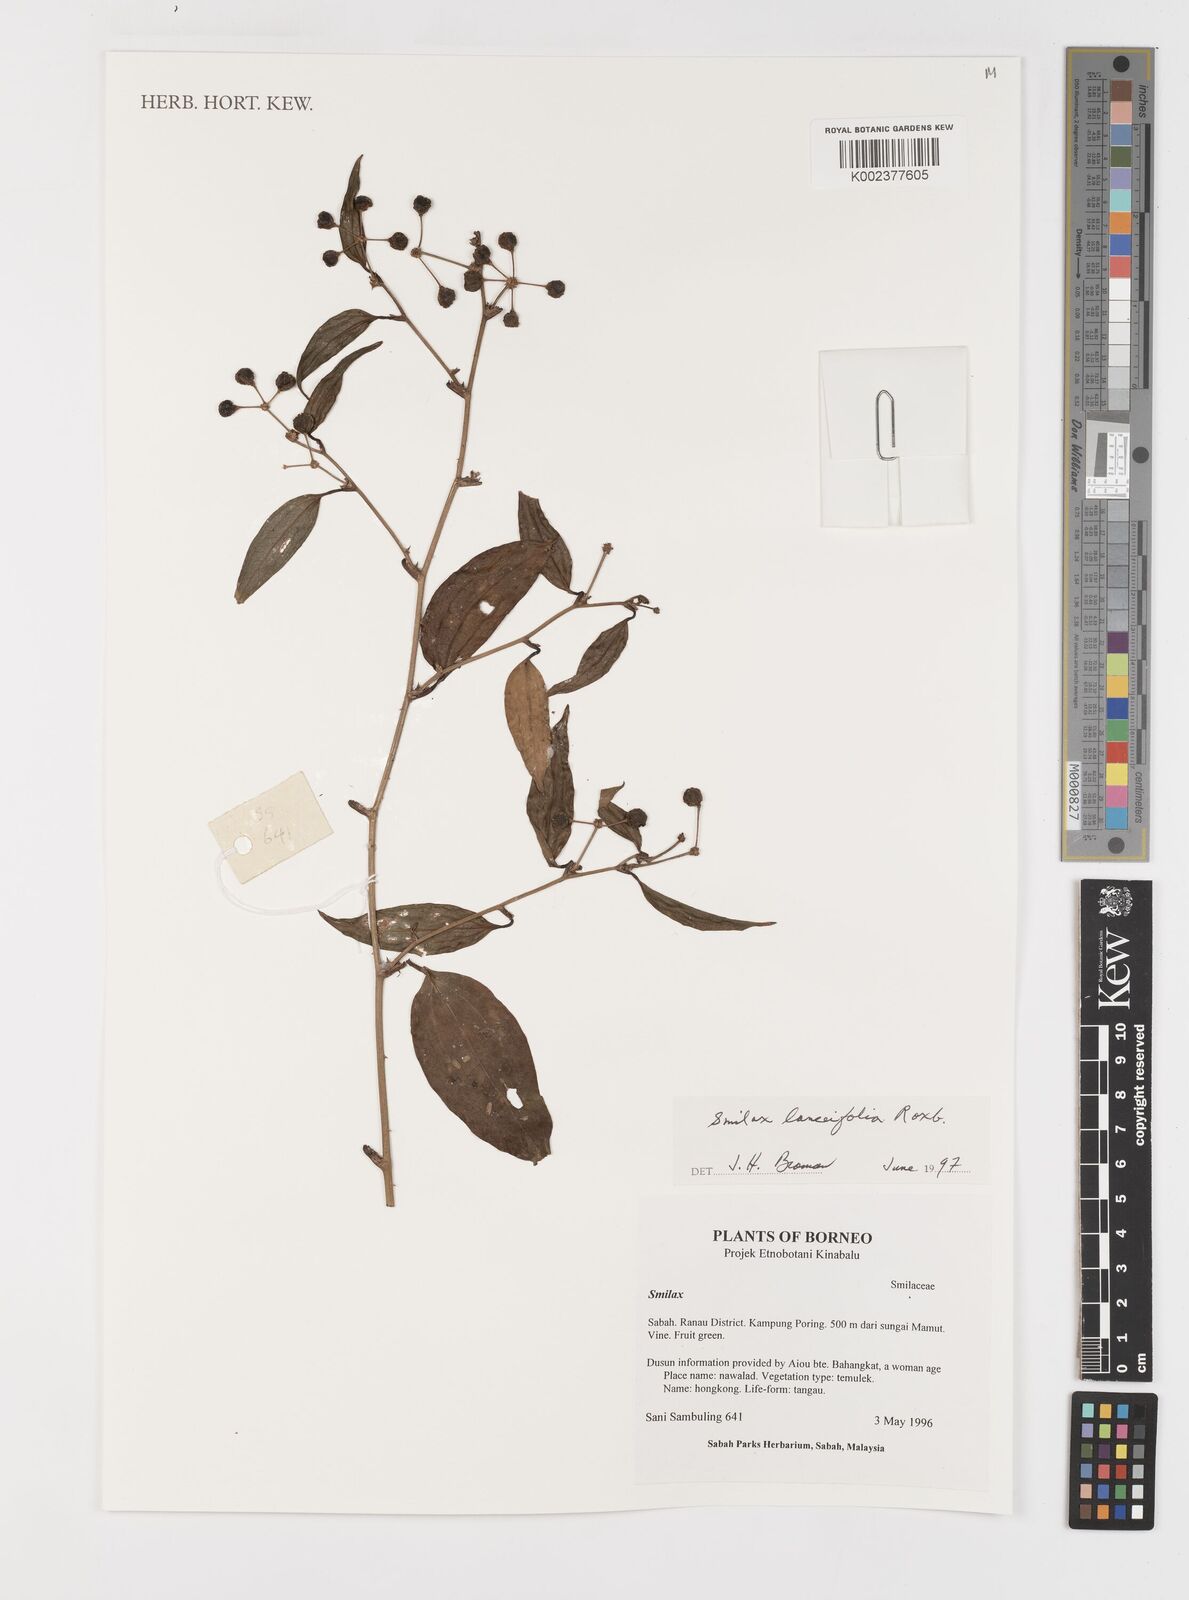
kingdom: Plantae
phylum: Tracheophyta
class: Liliopsida
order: Liliales
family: Smilacaceae
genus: Smilax
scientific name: Smilax lanceifolia
